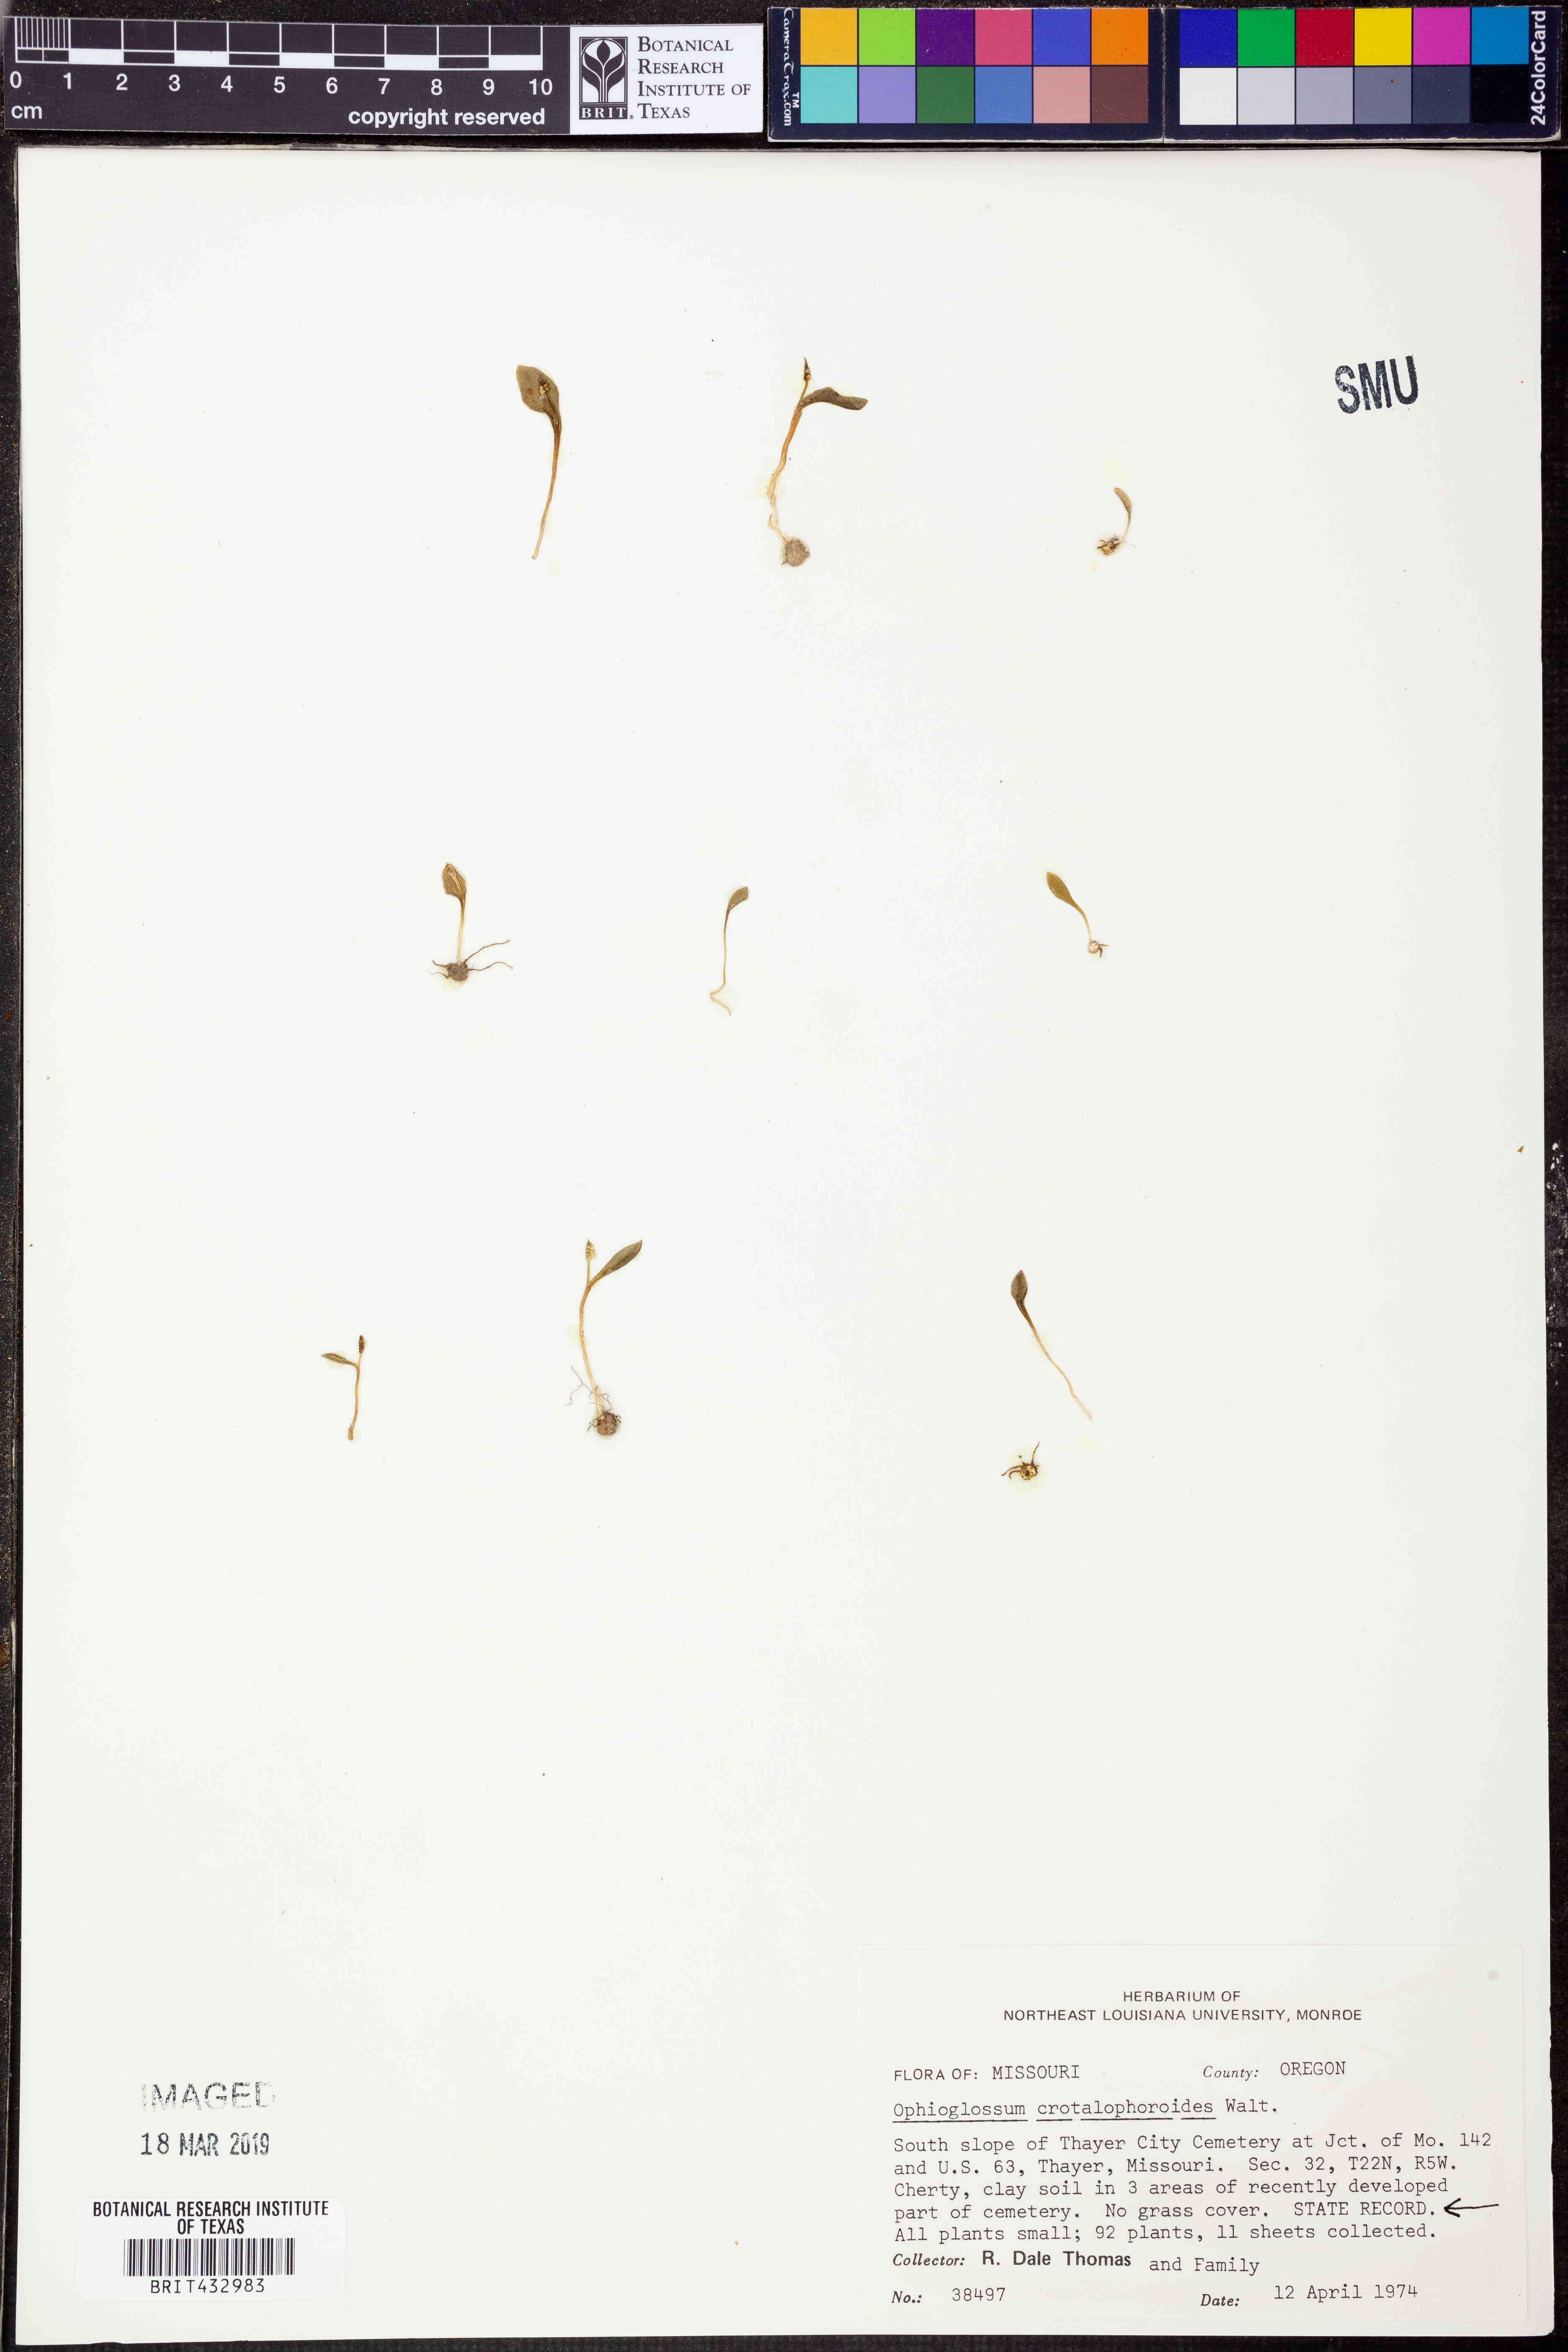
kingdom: Plantae
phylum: Tracheophyta
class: Polypodiopsida
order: Ophioglossales
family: Ophioglossaceae
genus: Ophioglossum
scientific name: Ophioglossum crotalophoroides
